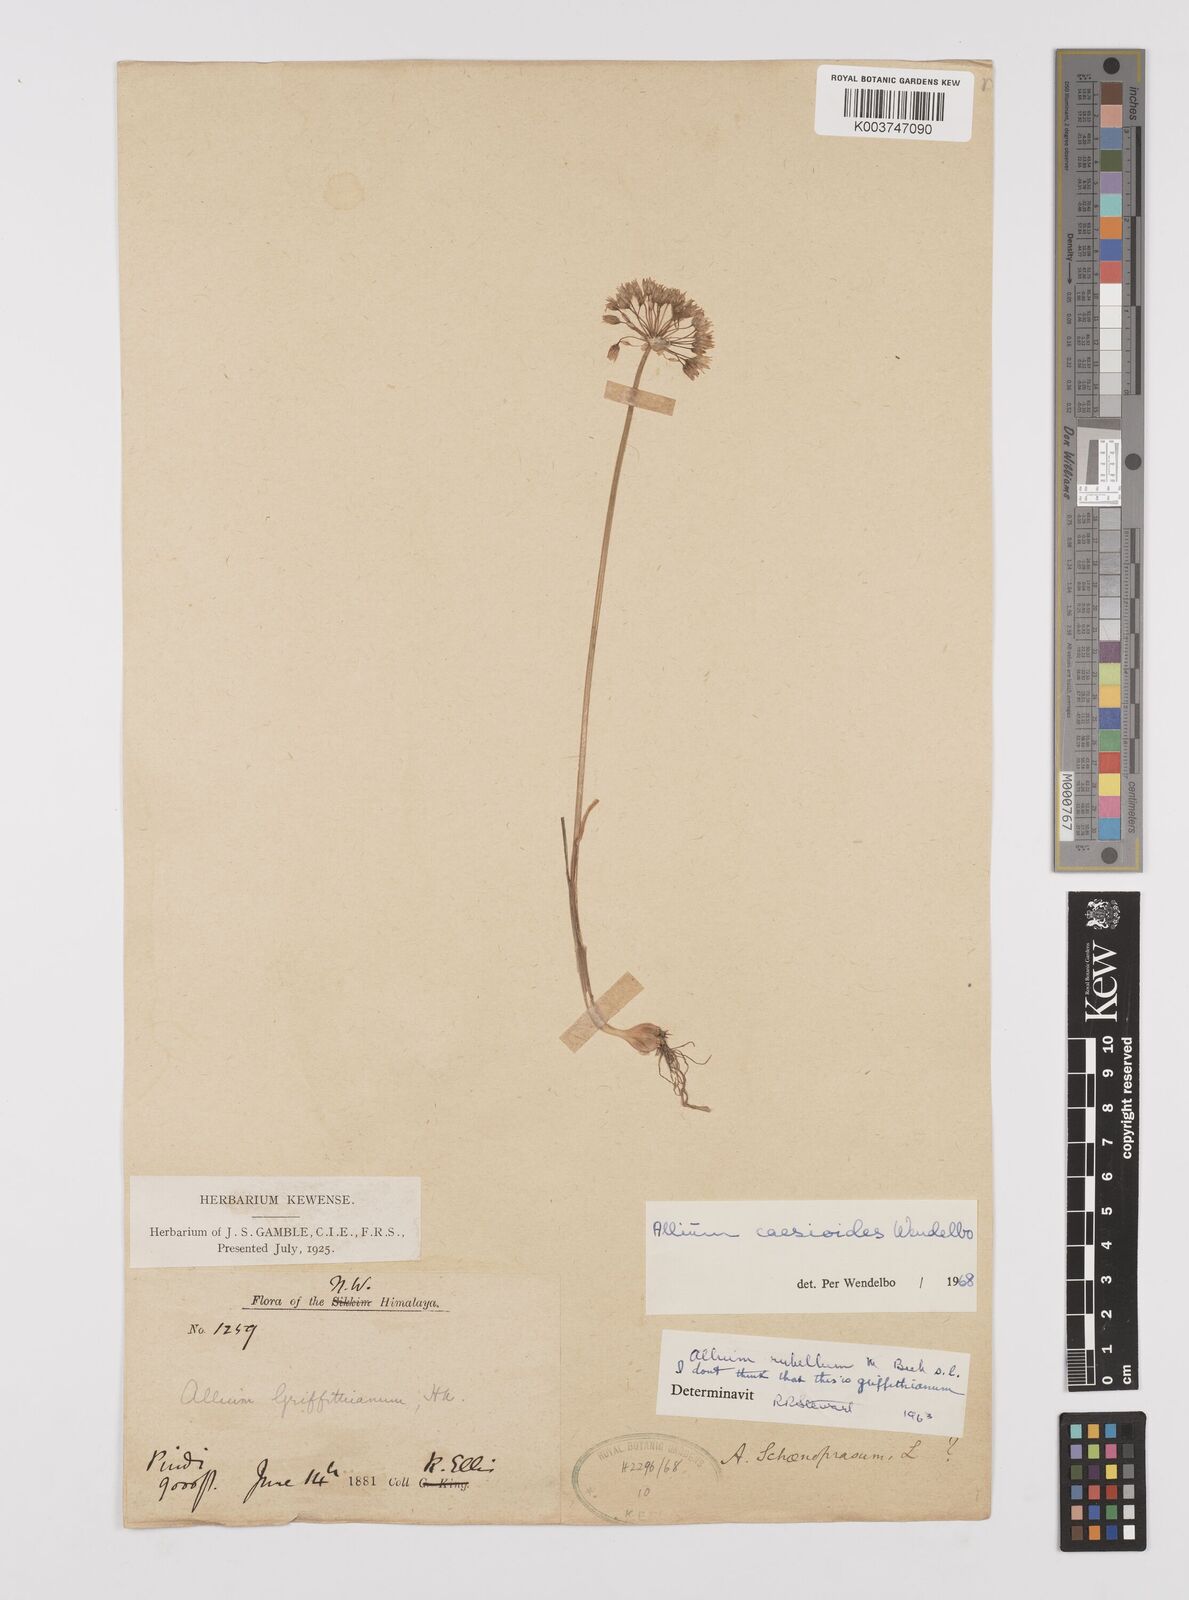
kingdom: Plantae
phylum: Tracheophyta
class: Liliopsida
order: Asparagales
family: Amaryllidaceae
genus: Allium
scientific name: Allium caesioides
